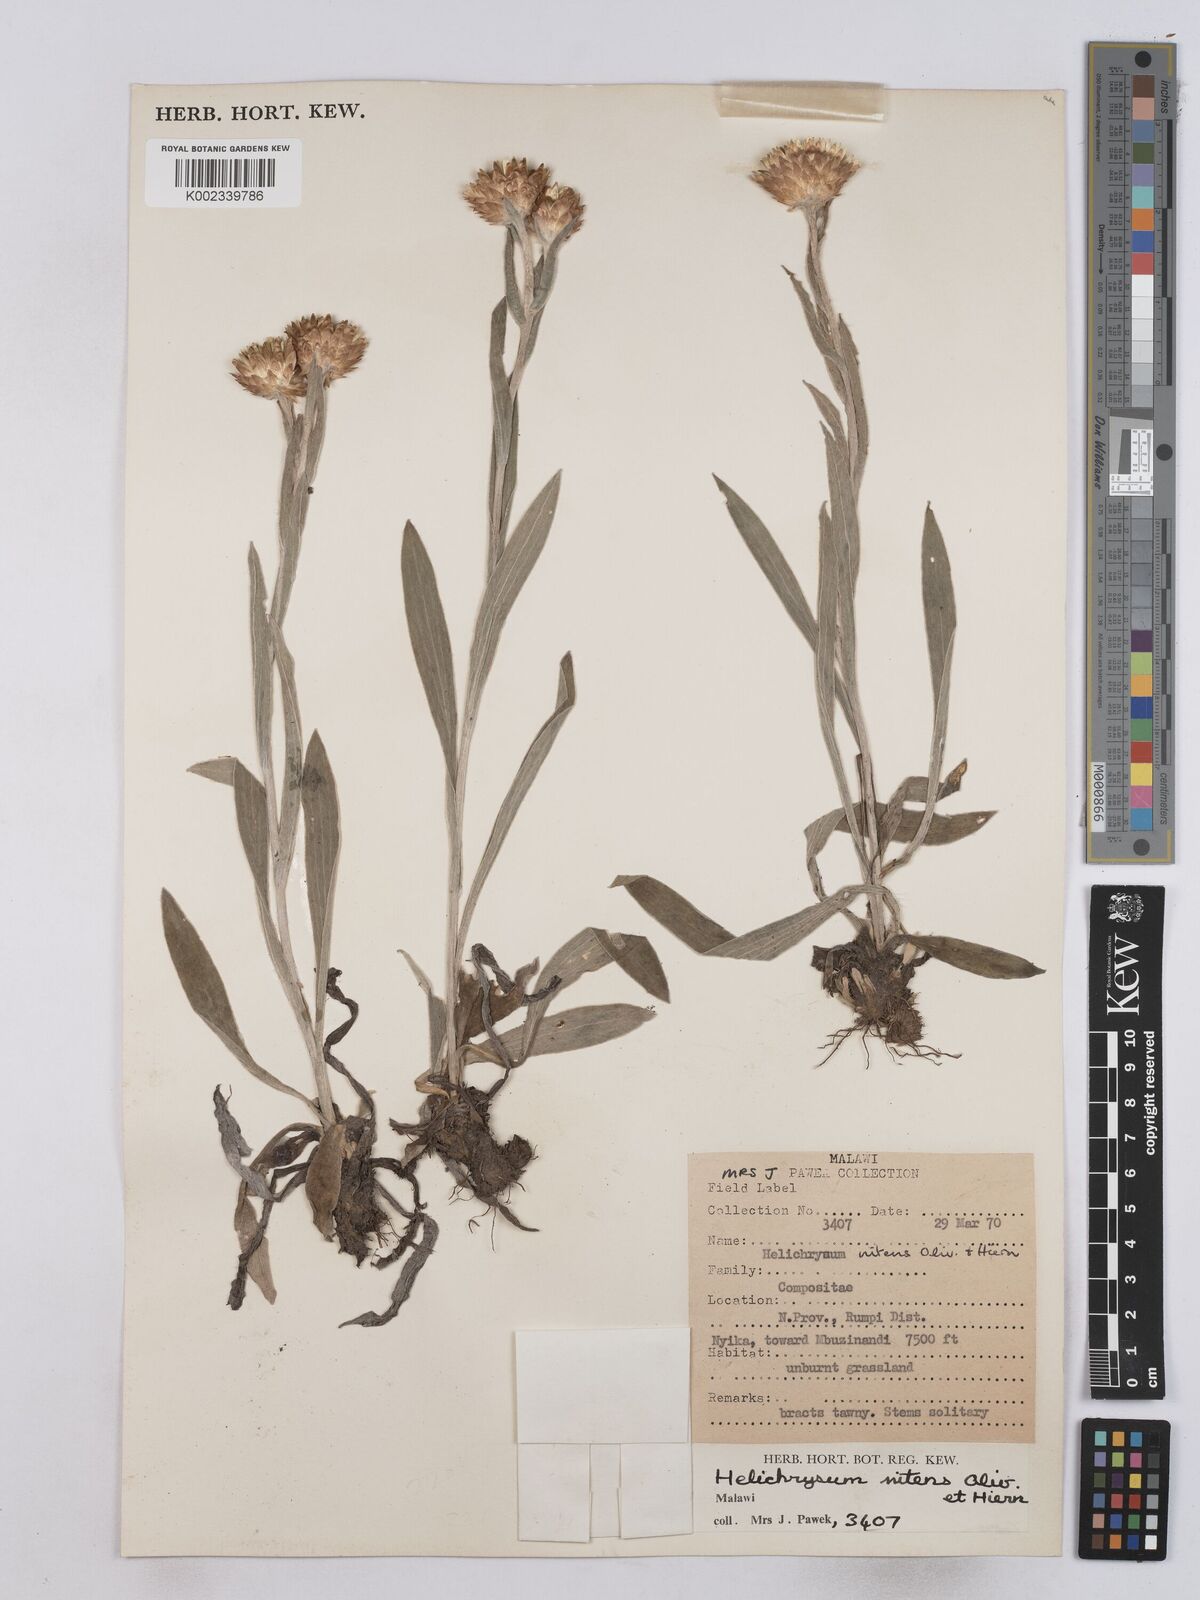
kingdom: Plantae
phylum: Tracheophyta
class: Magnoliopsida
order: Asterales
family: Asteraceae
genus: Helichrysum
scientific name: Helichrysum nitens
